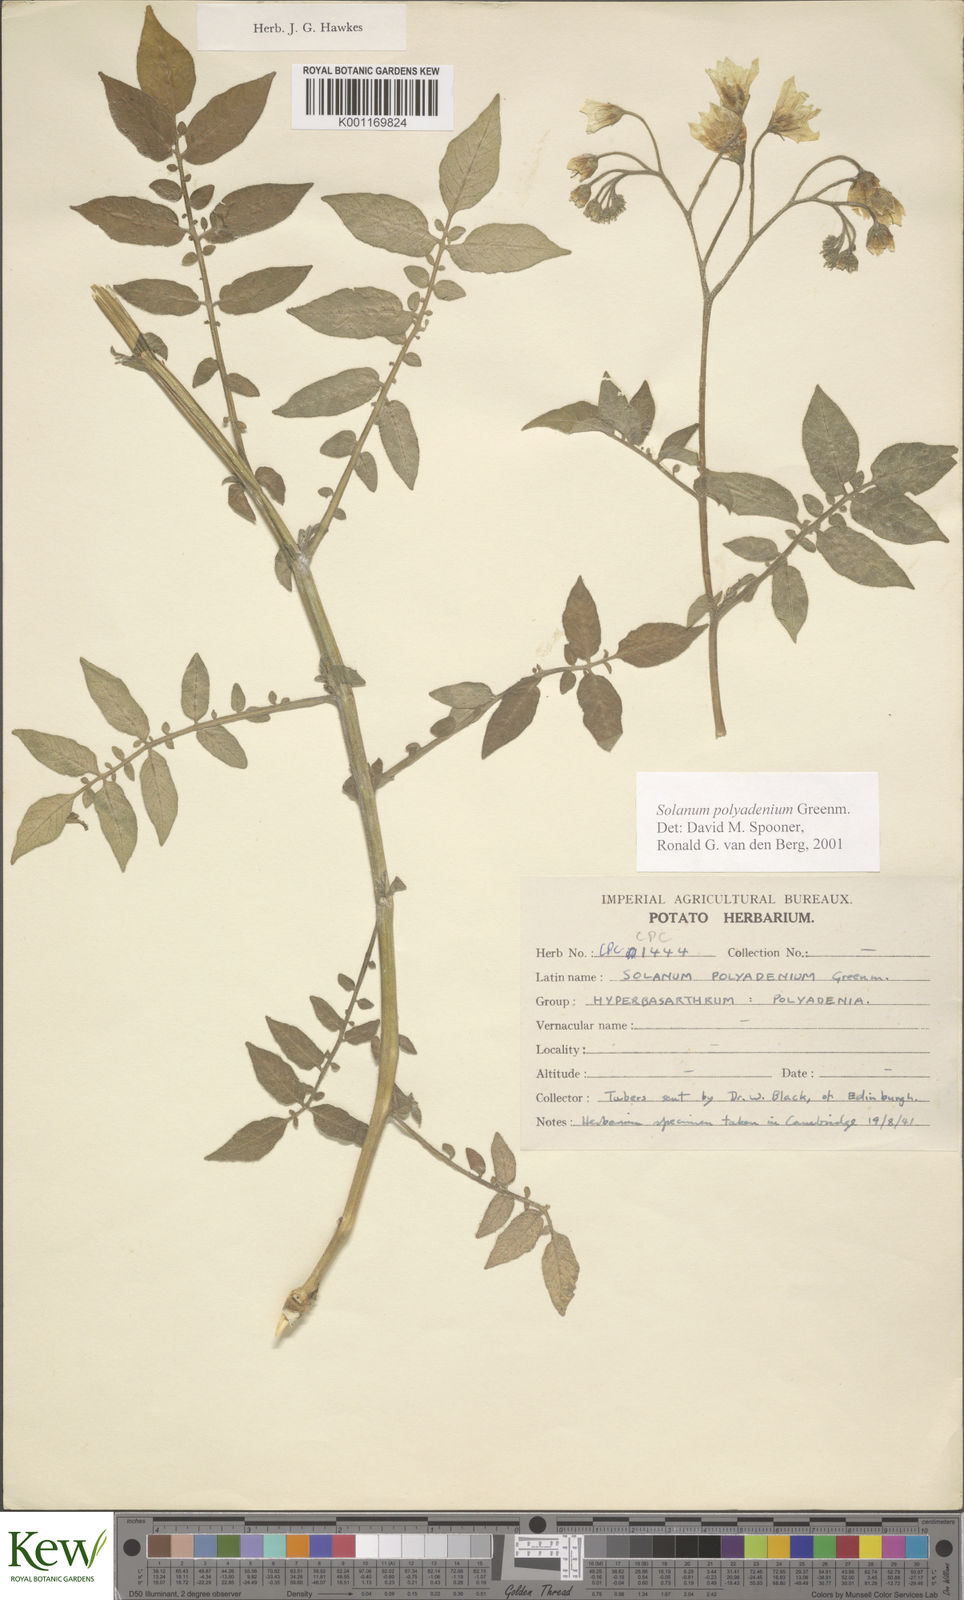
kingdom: Plantae
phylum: Tracheophyta
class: Magnoliopsida
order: Solanales
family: Solanaceae
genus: Solanum
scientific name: Solanum polyadenium
